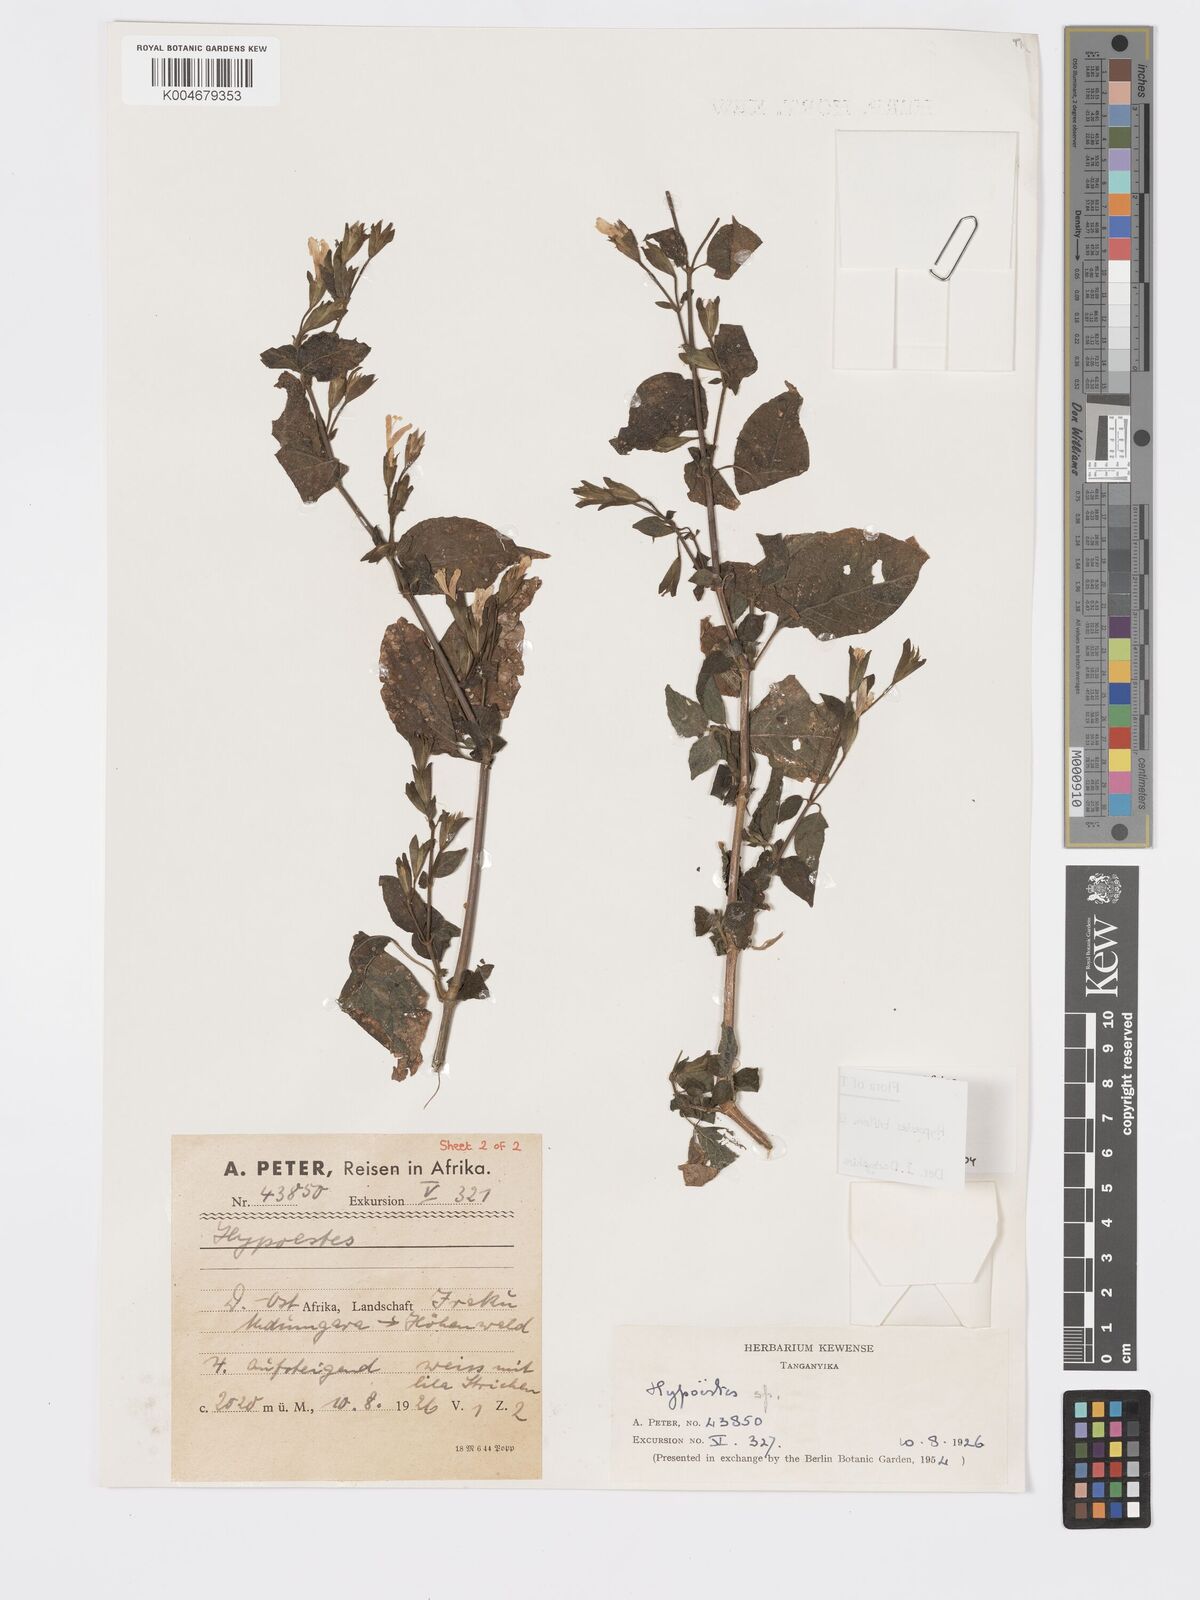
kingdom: Plantae
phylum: Tracheophyta
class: Magnoliopsida
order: Lamiales
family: Acanthaceae
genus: Hypoestes
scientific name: Hypoestes triflora
